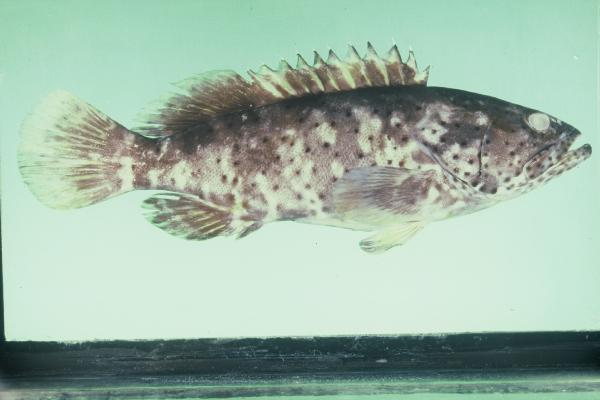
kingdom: Animalia
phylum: Chordata
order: Perciformes
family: Serranidae
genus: Epinephelus
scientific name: Epinephelus malabaricus
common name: Malabar grouper
